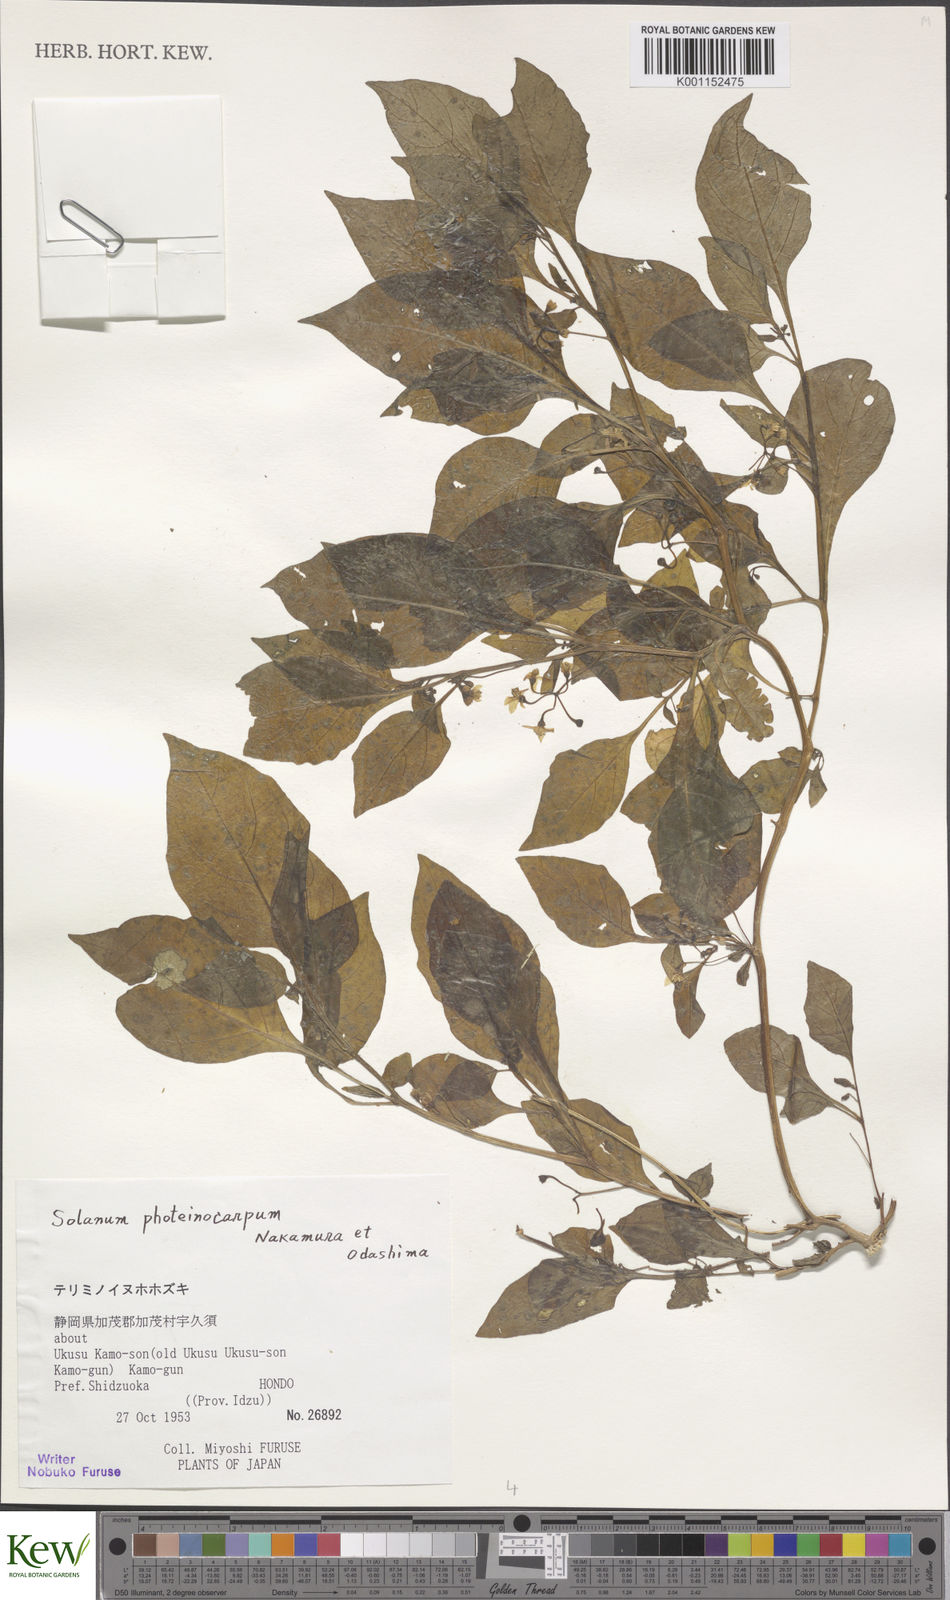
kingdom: Plantae
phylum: Tracheophyta
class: Magnoliopsida
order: Solanales
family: Solanaceae
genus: Solanum
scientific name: Solanum americanum
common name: American black nightshade
